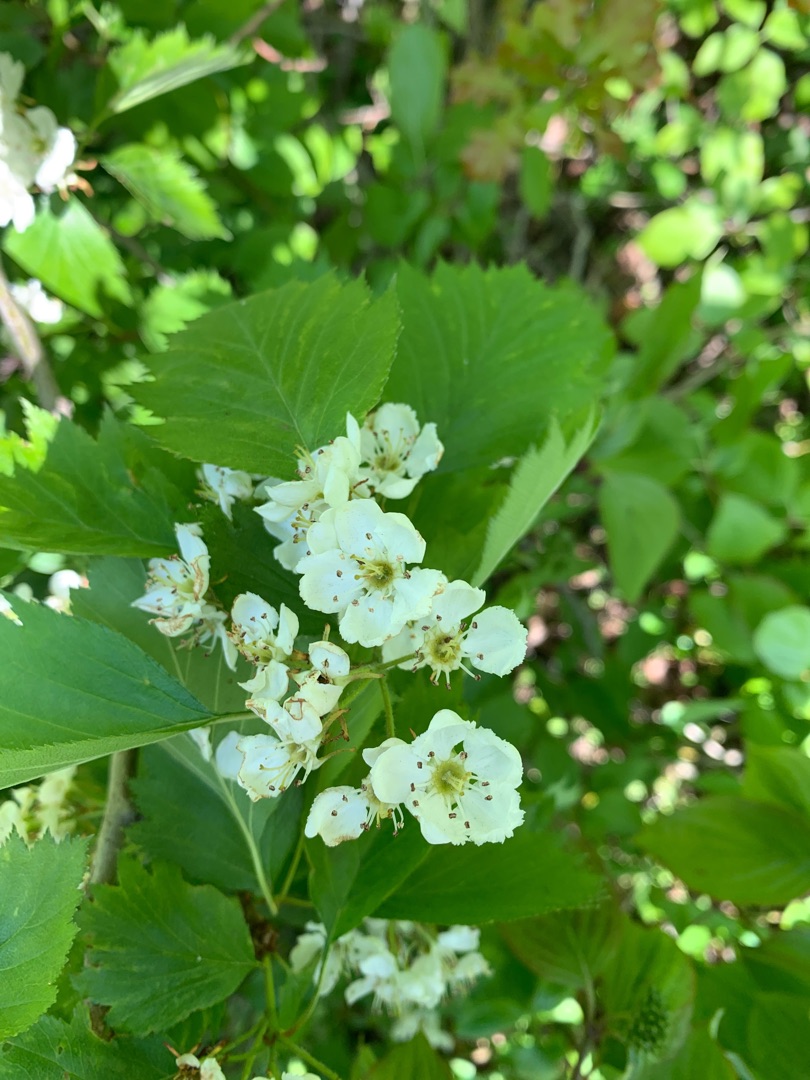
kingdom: Plantae
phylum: Tracheophyta
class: Magnoliopsida
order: Rosales
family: Rosaceae
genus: Crataegus
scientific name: Crataegus
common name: Hvidtjørnslægten
